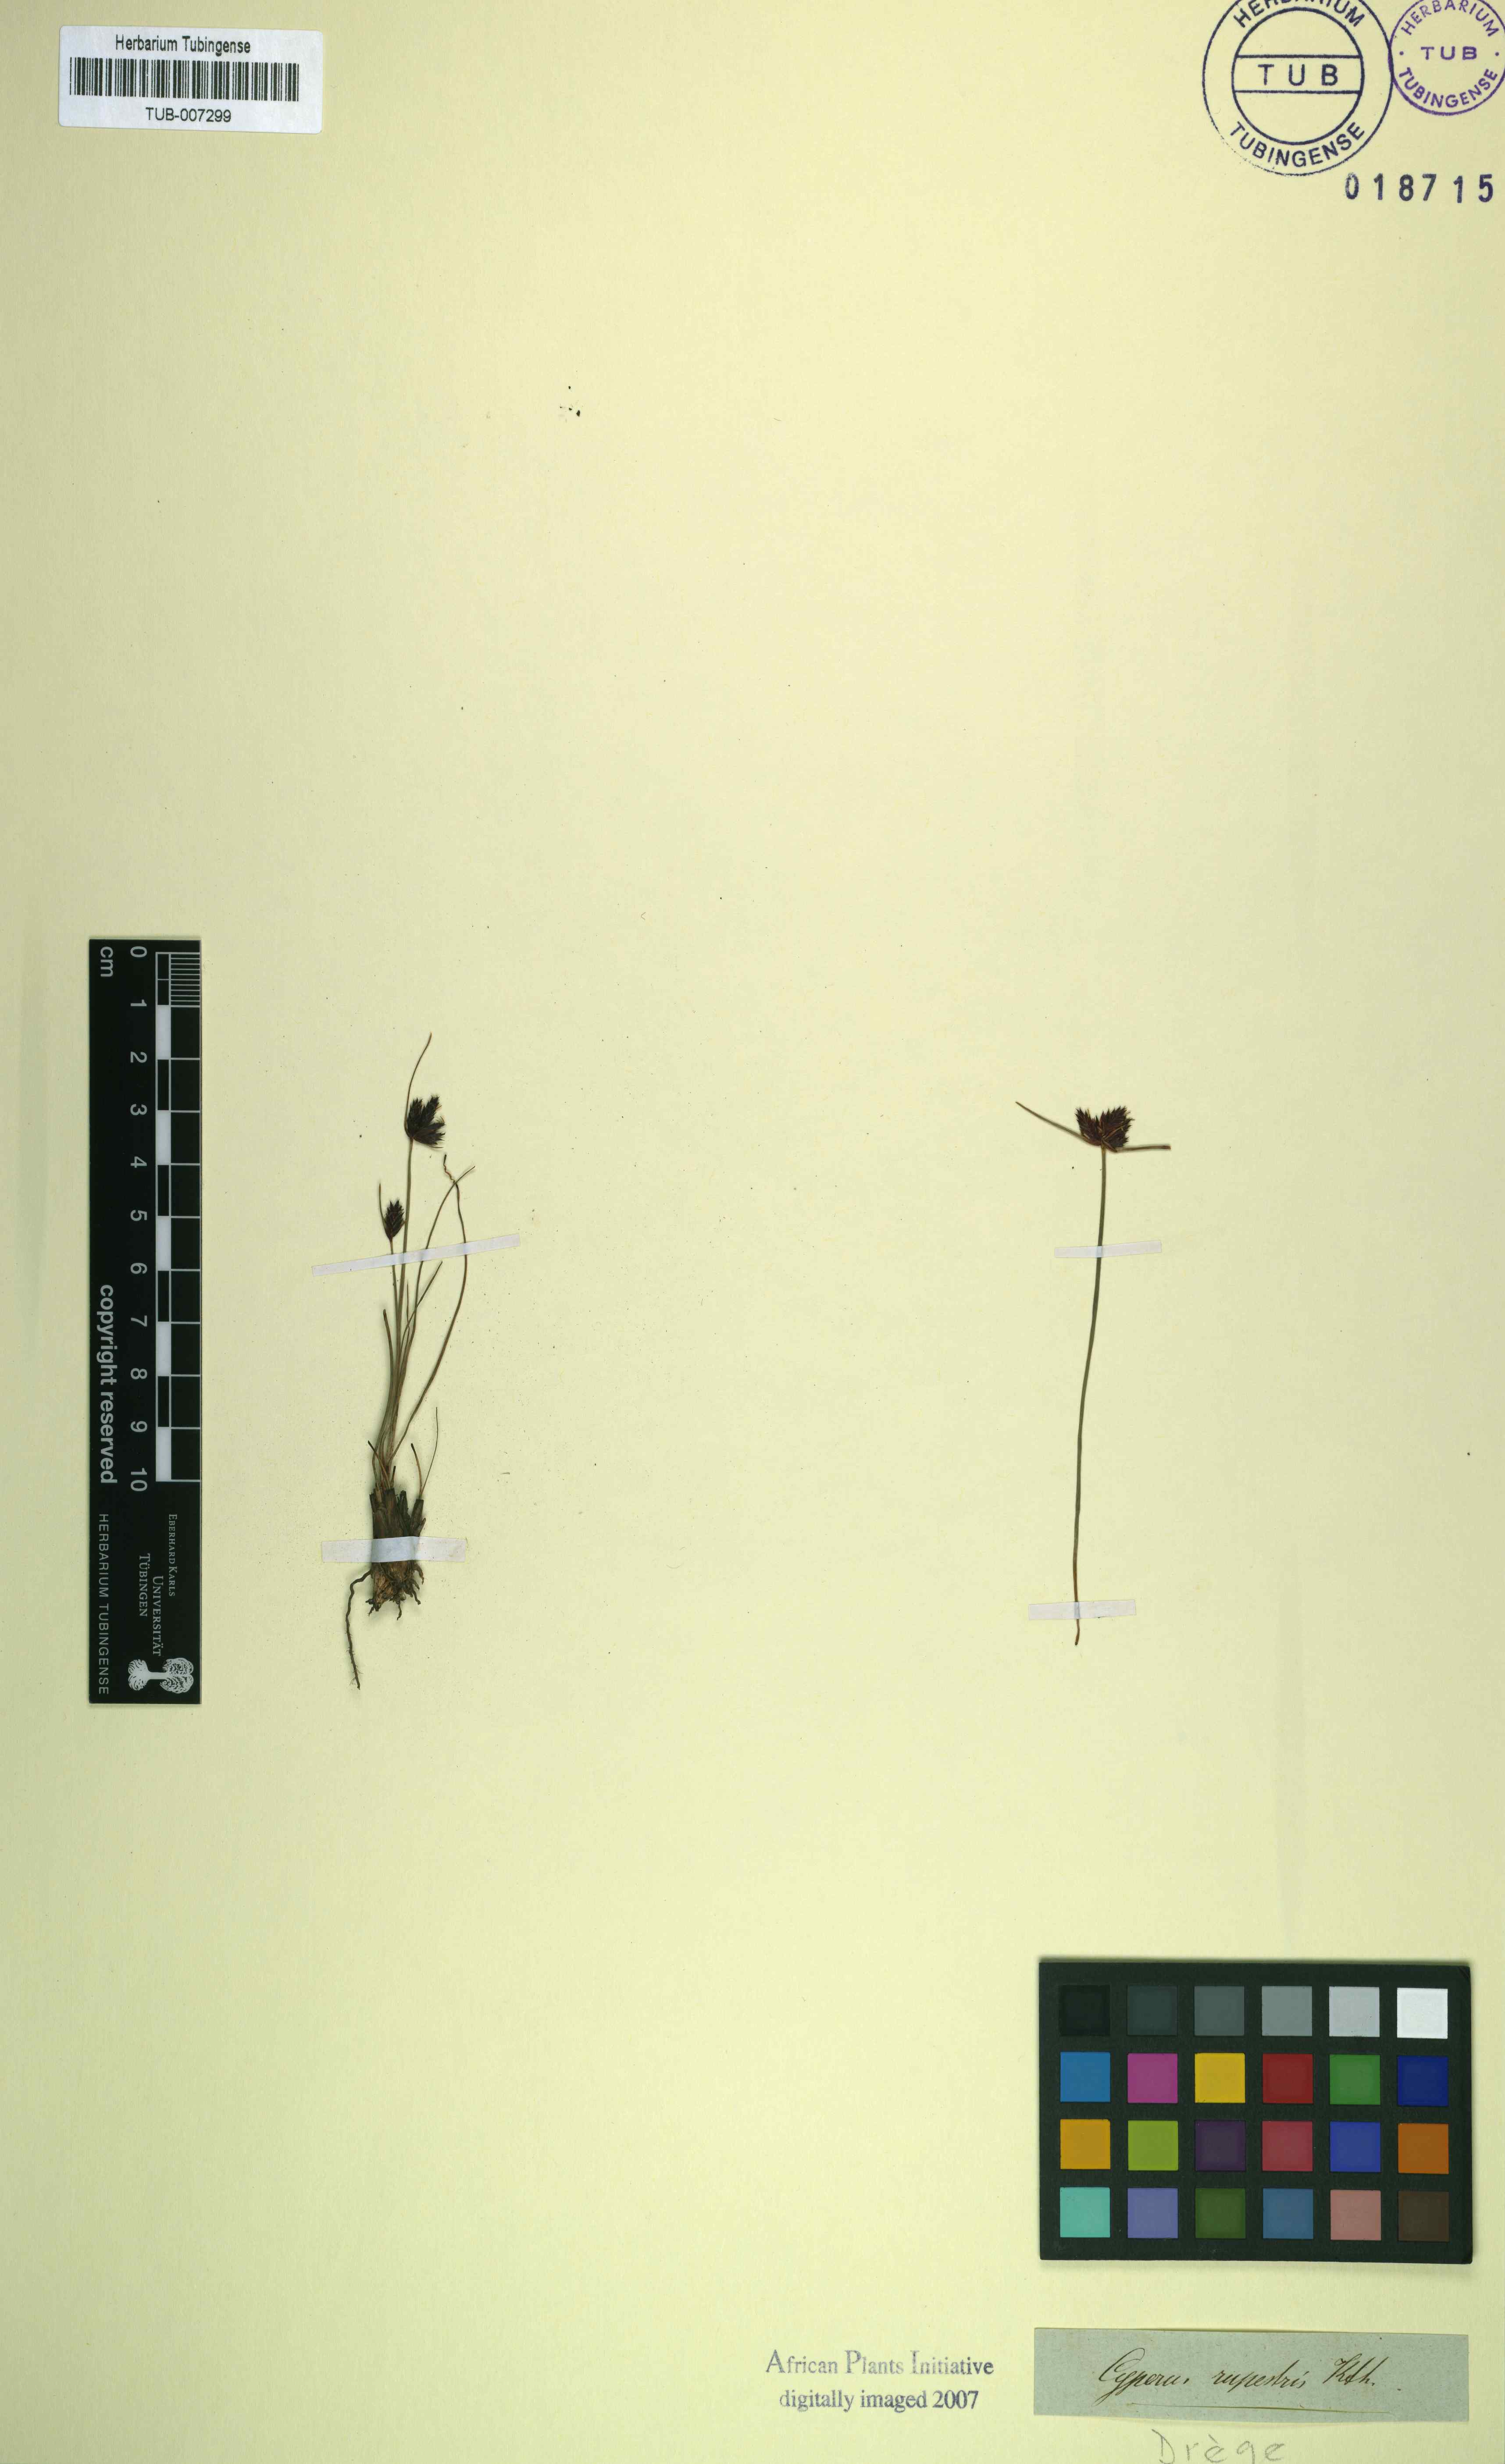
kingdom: Plantae
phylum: Tracheophyta
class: Liliopsida
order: Poales
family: Cyperaceae
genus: Cyperus
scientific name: Cyperus rupestris
